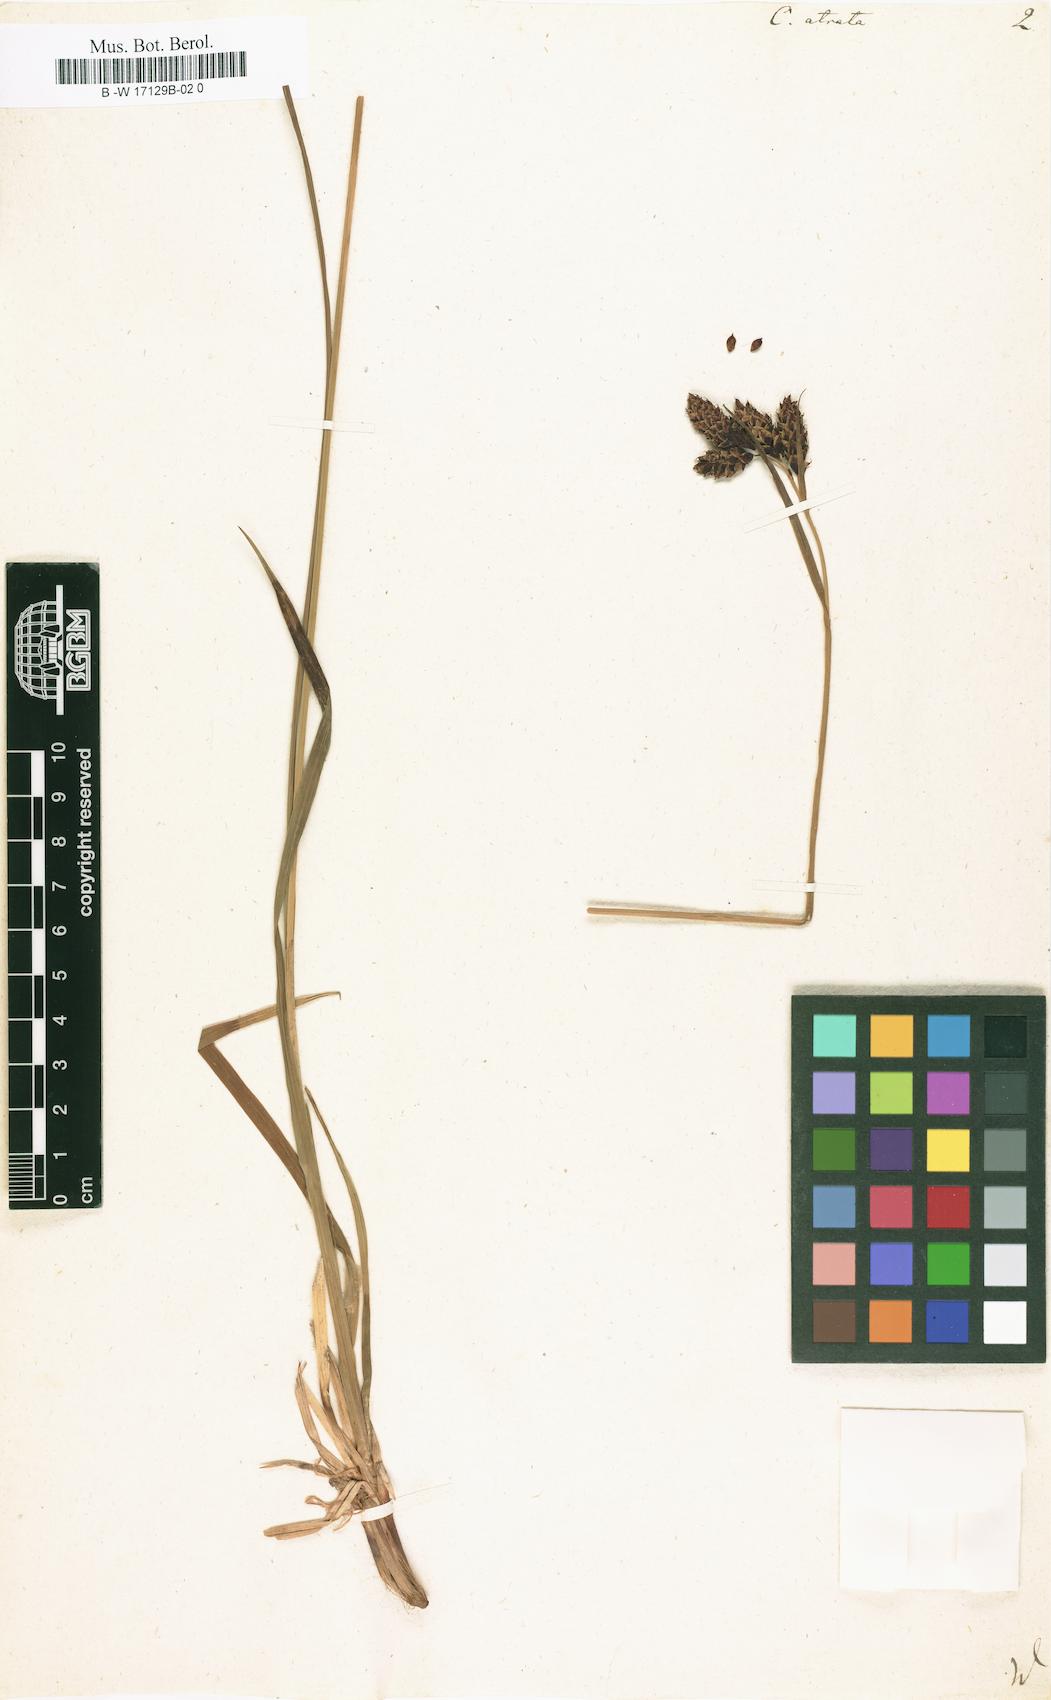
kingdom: Plantae
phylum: Tracheophyta
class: Liliopsida
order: Poales
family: Cyperaceae
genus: Carex
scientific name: Carex atrata
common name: Black alpine sedge
